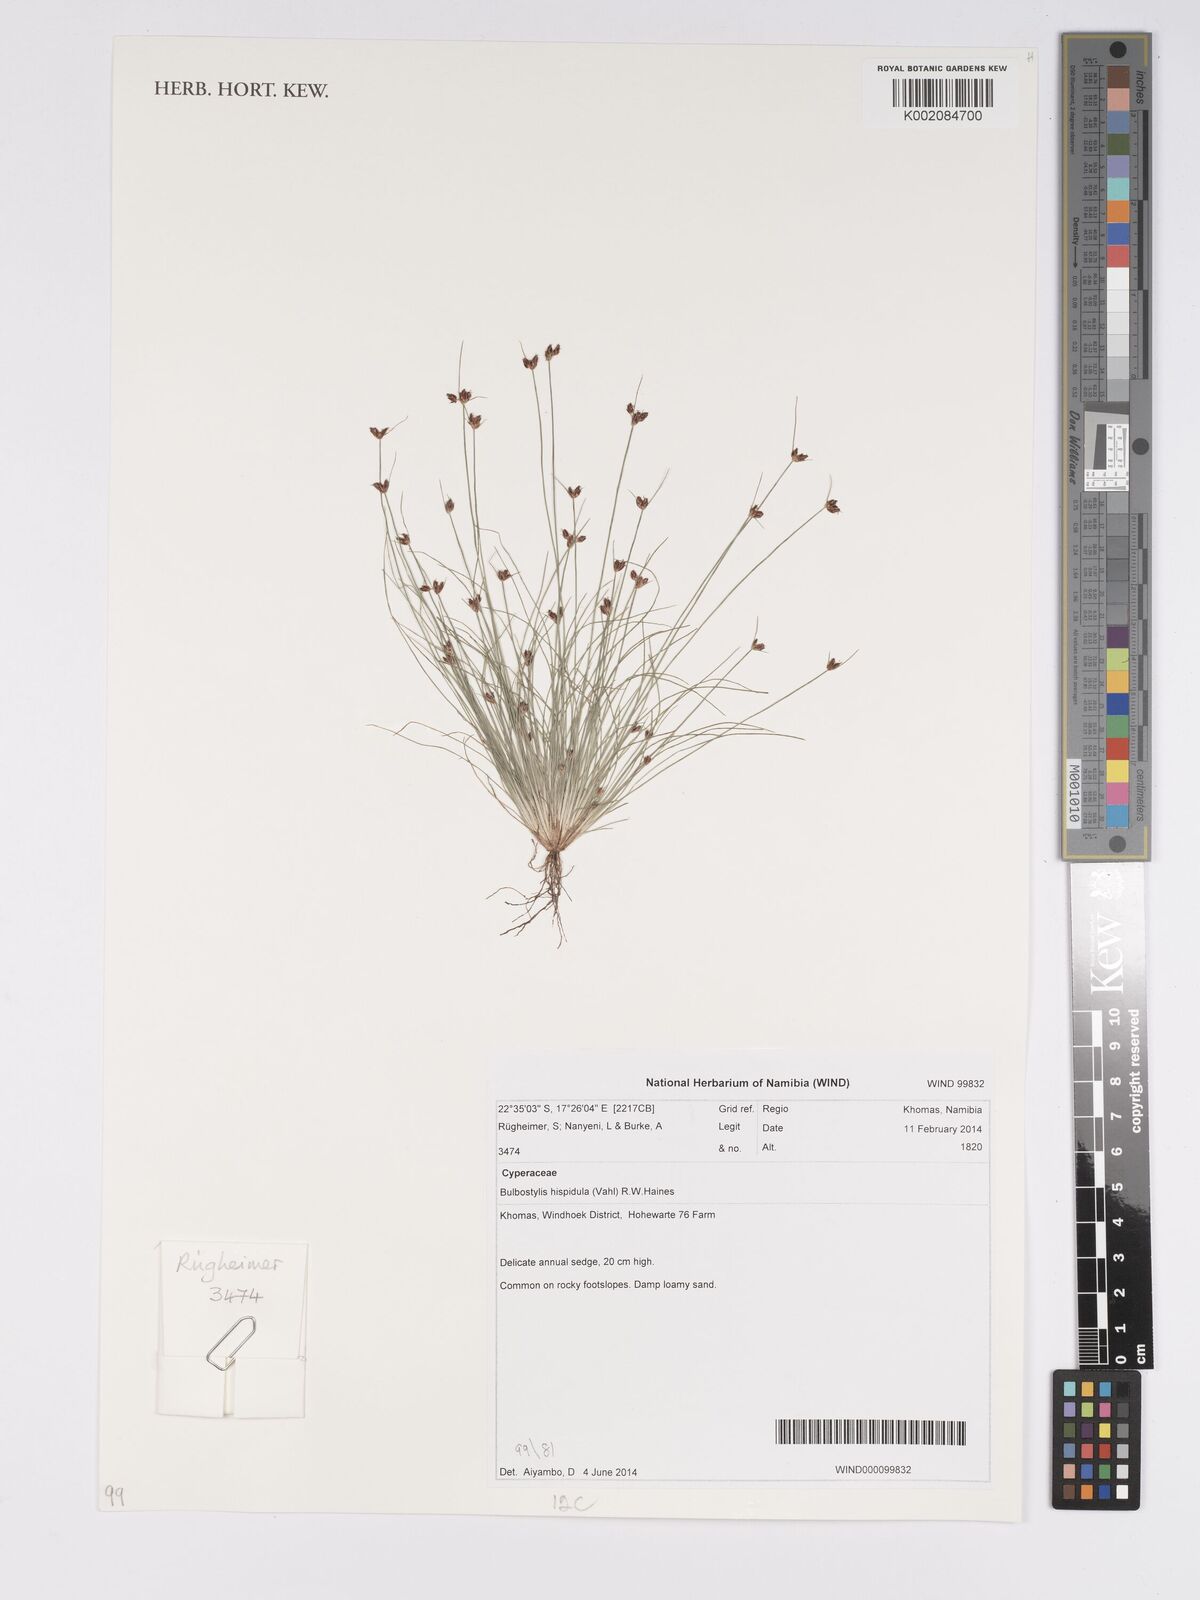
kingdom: Plantae
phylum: Tracheophyta
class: Liliopsida
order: Poales
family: Cyperaceae
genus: Bulbostylis
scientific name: Bulbostylis hispidula
